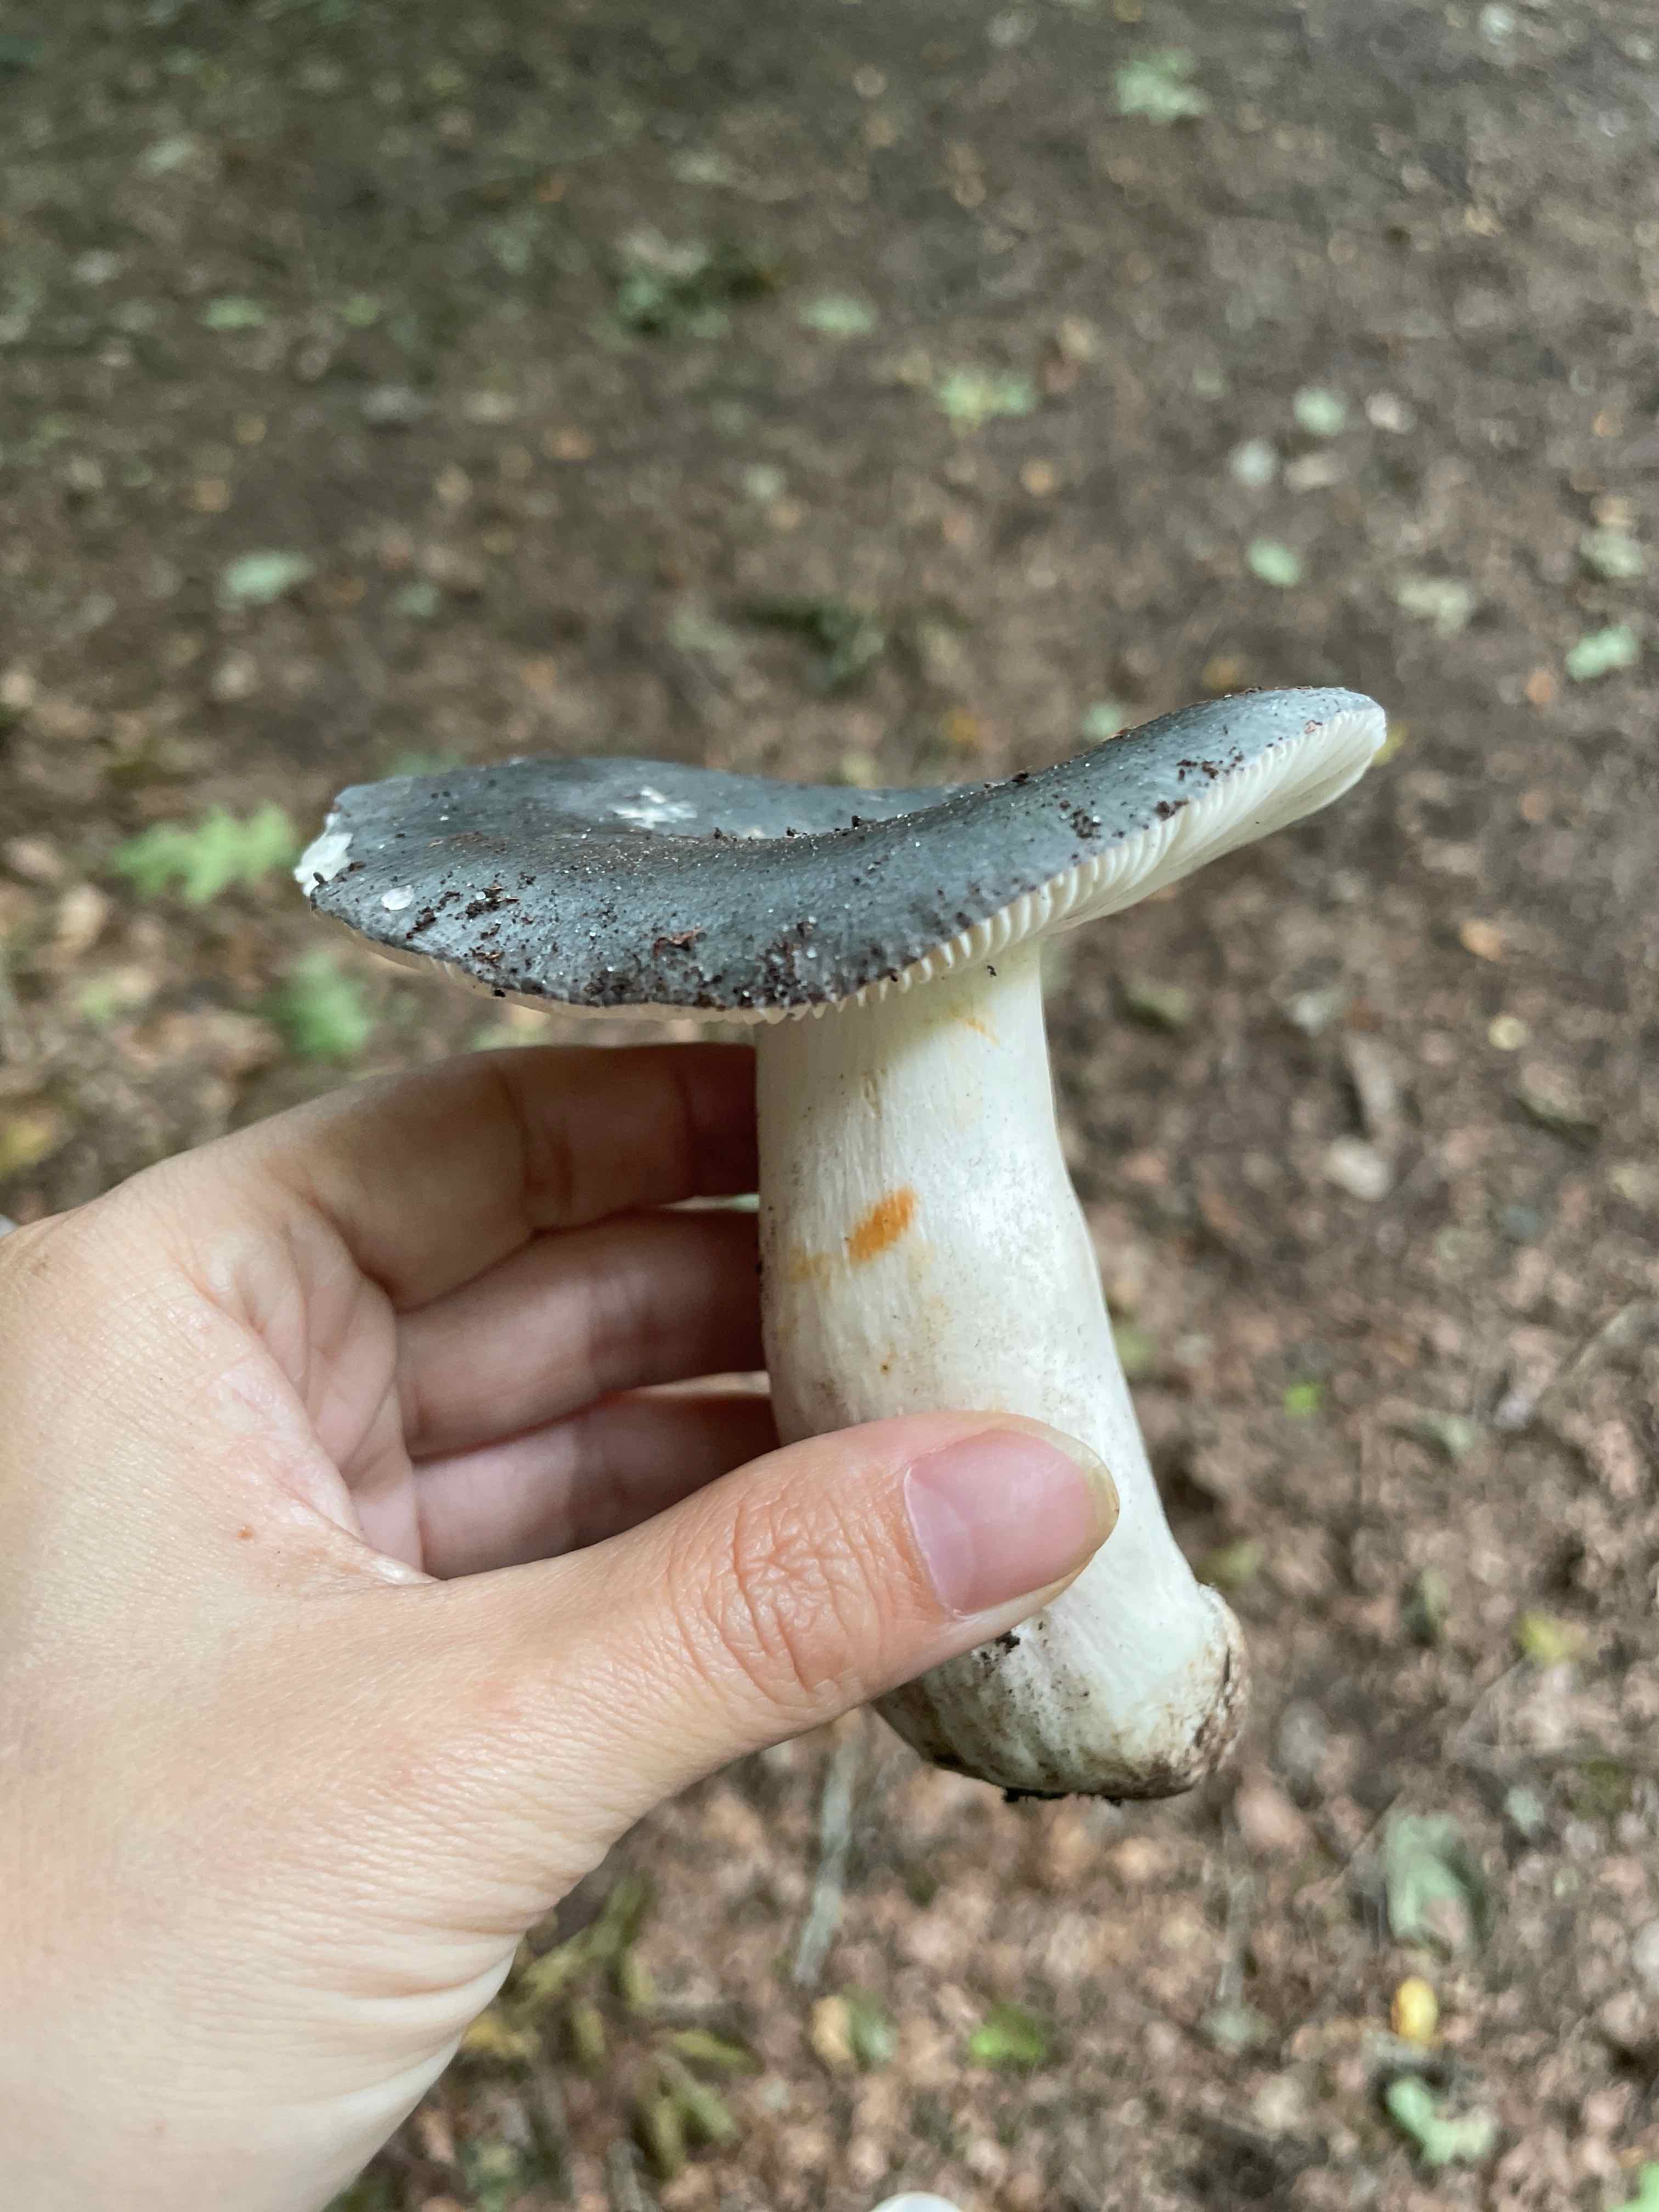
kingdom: Fungi
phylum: Basidiomycota
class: Agaricomycetes
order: Russulales
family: Russulaceae
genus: Russula
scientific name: Russula
